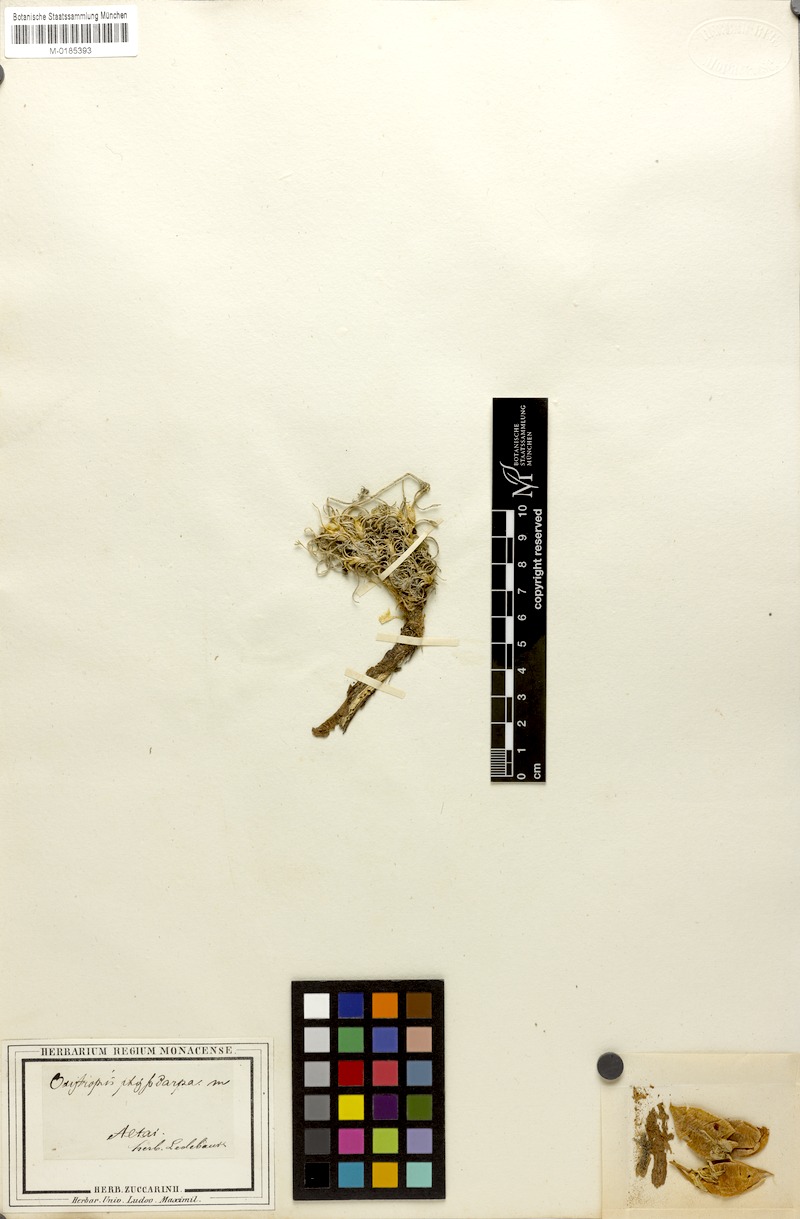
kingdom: Plantae
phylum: Tracheophyta
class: Magnoliopsida
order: Fabales
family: Fabaceae
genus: Oxytropis
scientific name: Oxytropis physocarpa
